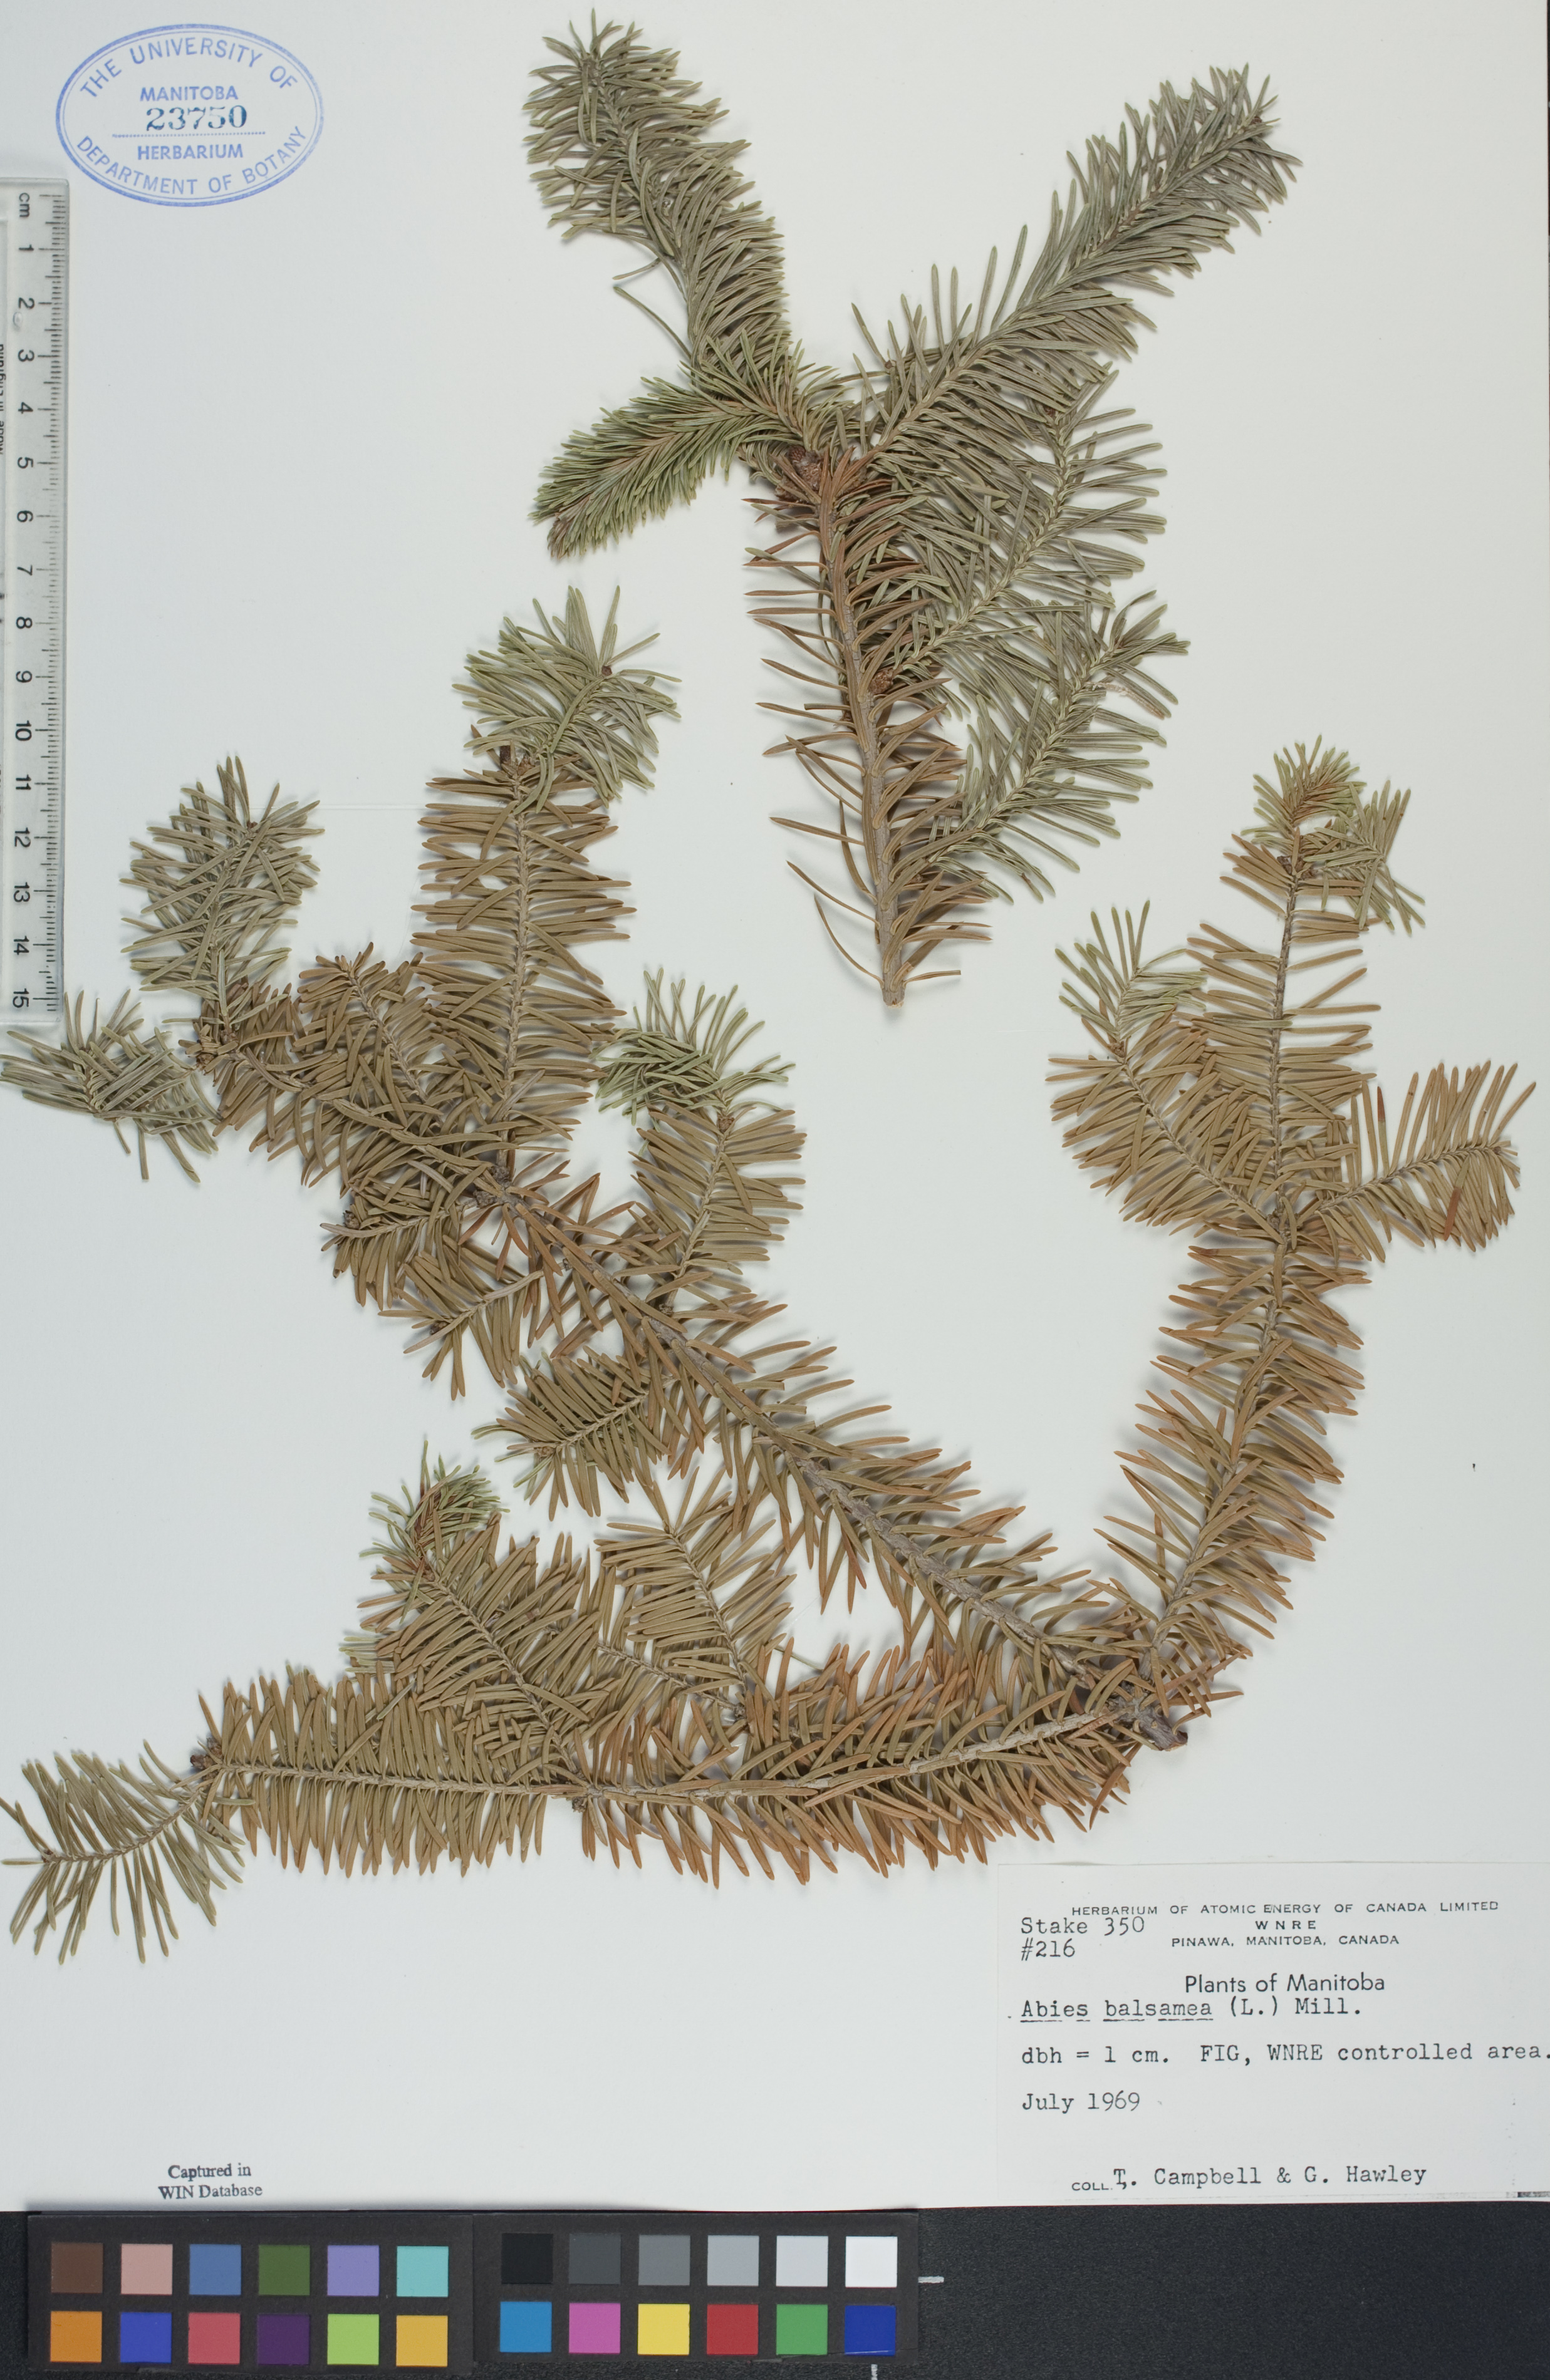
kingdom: Plantae
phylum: Tracheophyta
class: Pinopsida
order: Pinales
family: Pinaceae
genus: Abies
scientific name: Abies balsamea
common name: Balsam fir
